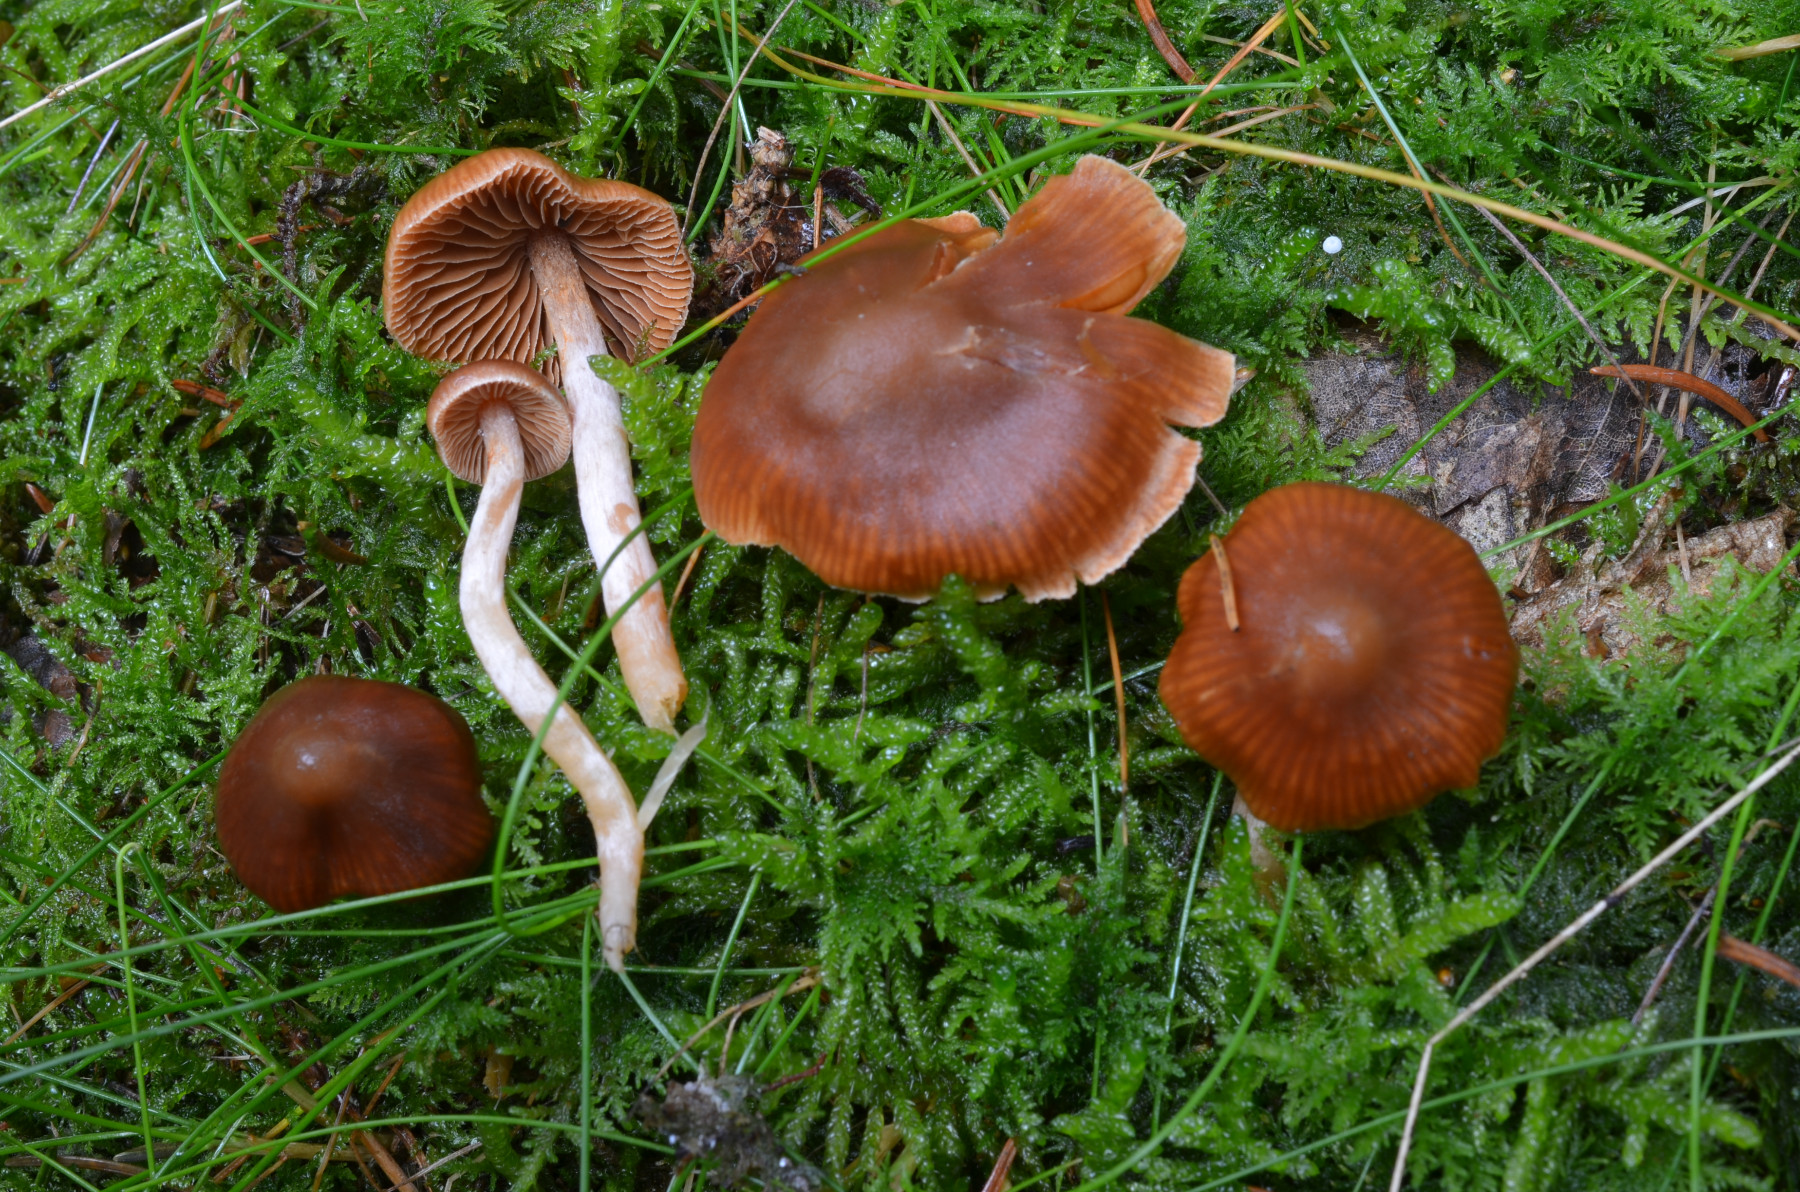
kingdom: Fungi
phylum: Basidiomycota
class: Agaricomycetes
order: Agaricales
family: Cortinariaceae
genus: Cortinarius
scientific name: Cortinarius pseudocandelaris
